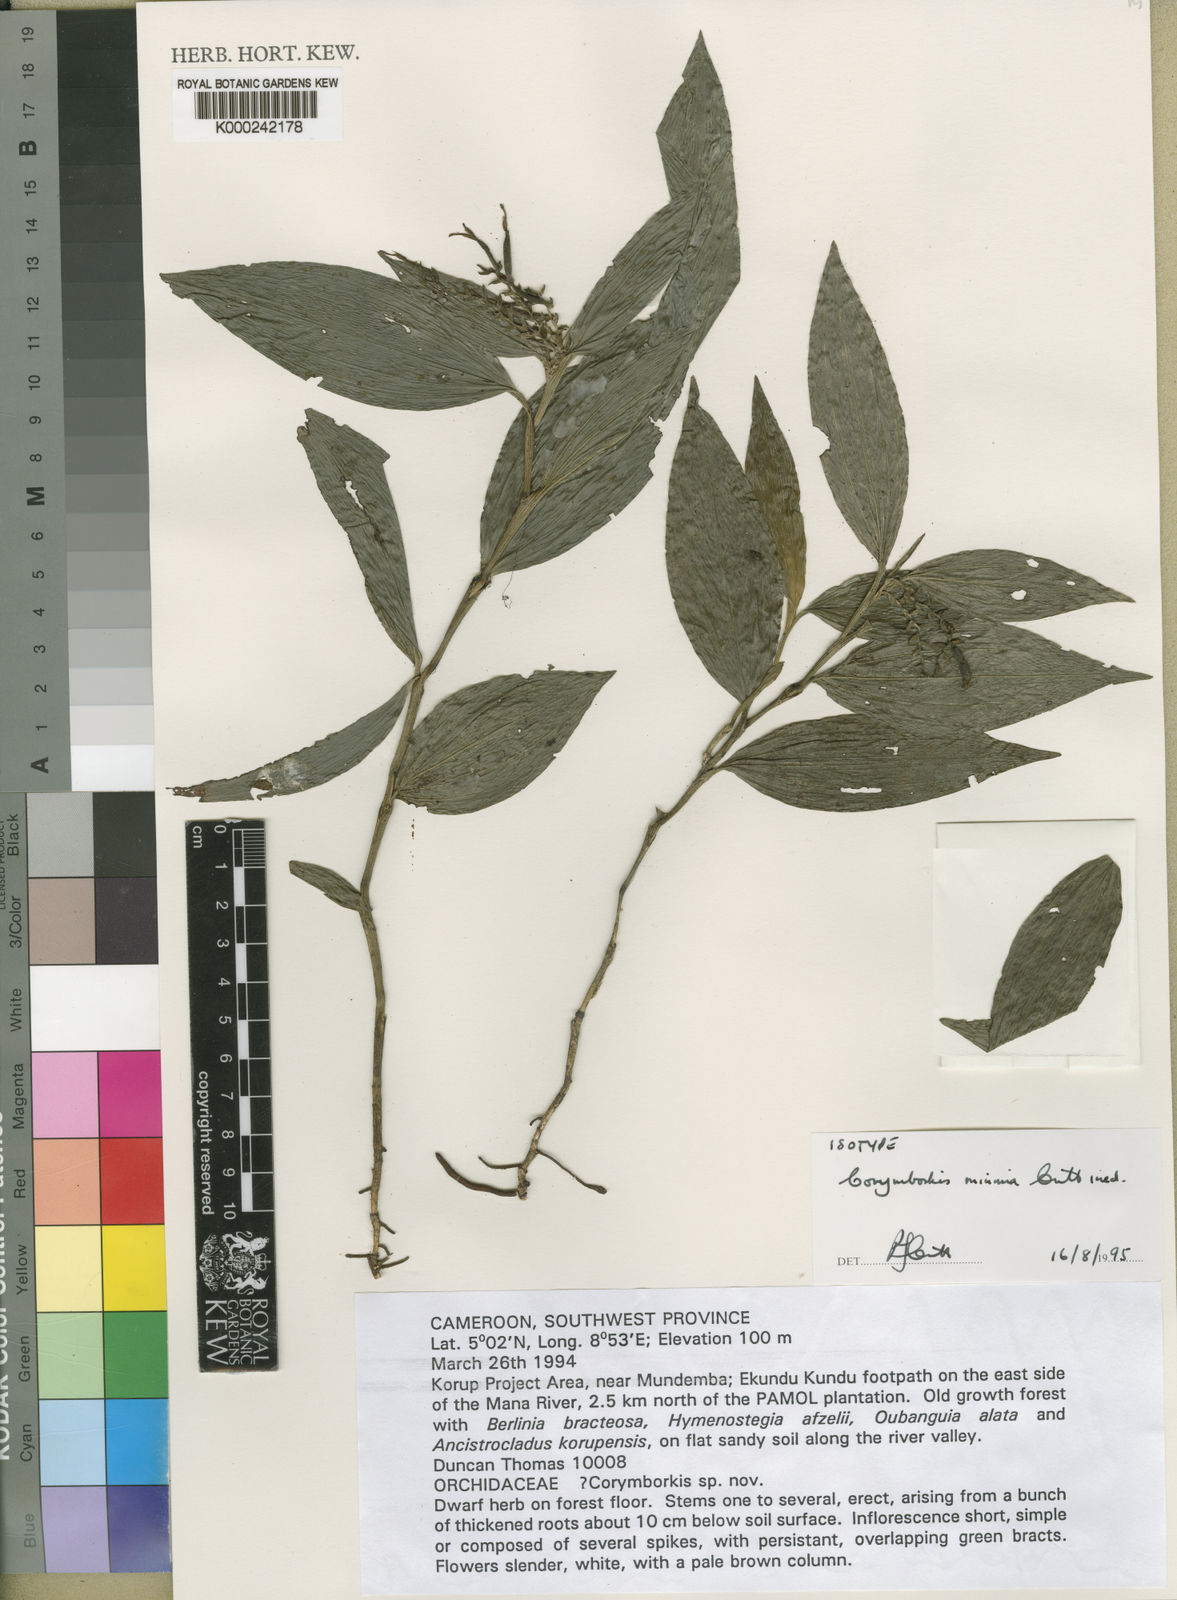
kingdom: Plantae
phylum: Tracheophyta
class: Liliopsida
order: Asparagales
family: Orchidaceae
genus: Corymborkis
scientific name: Corymborkis minima
